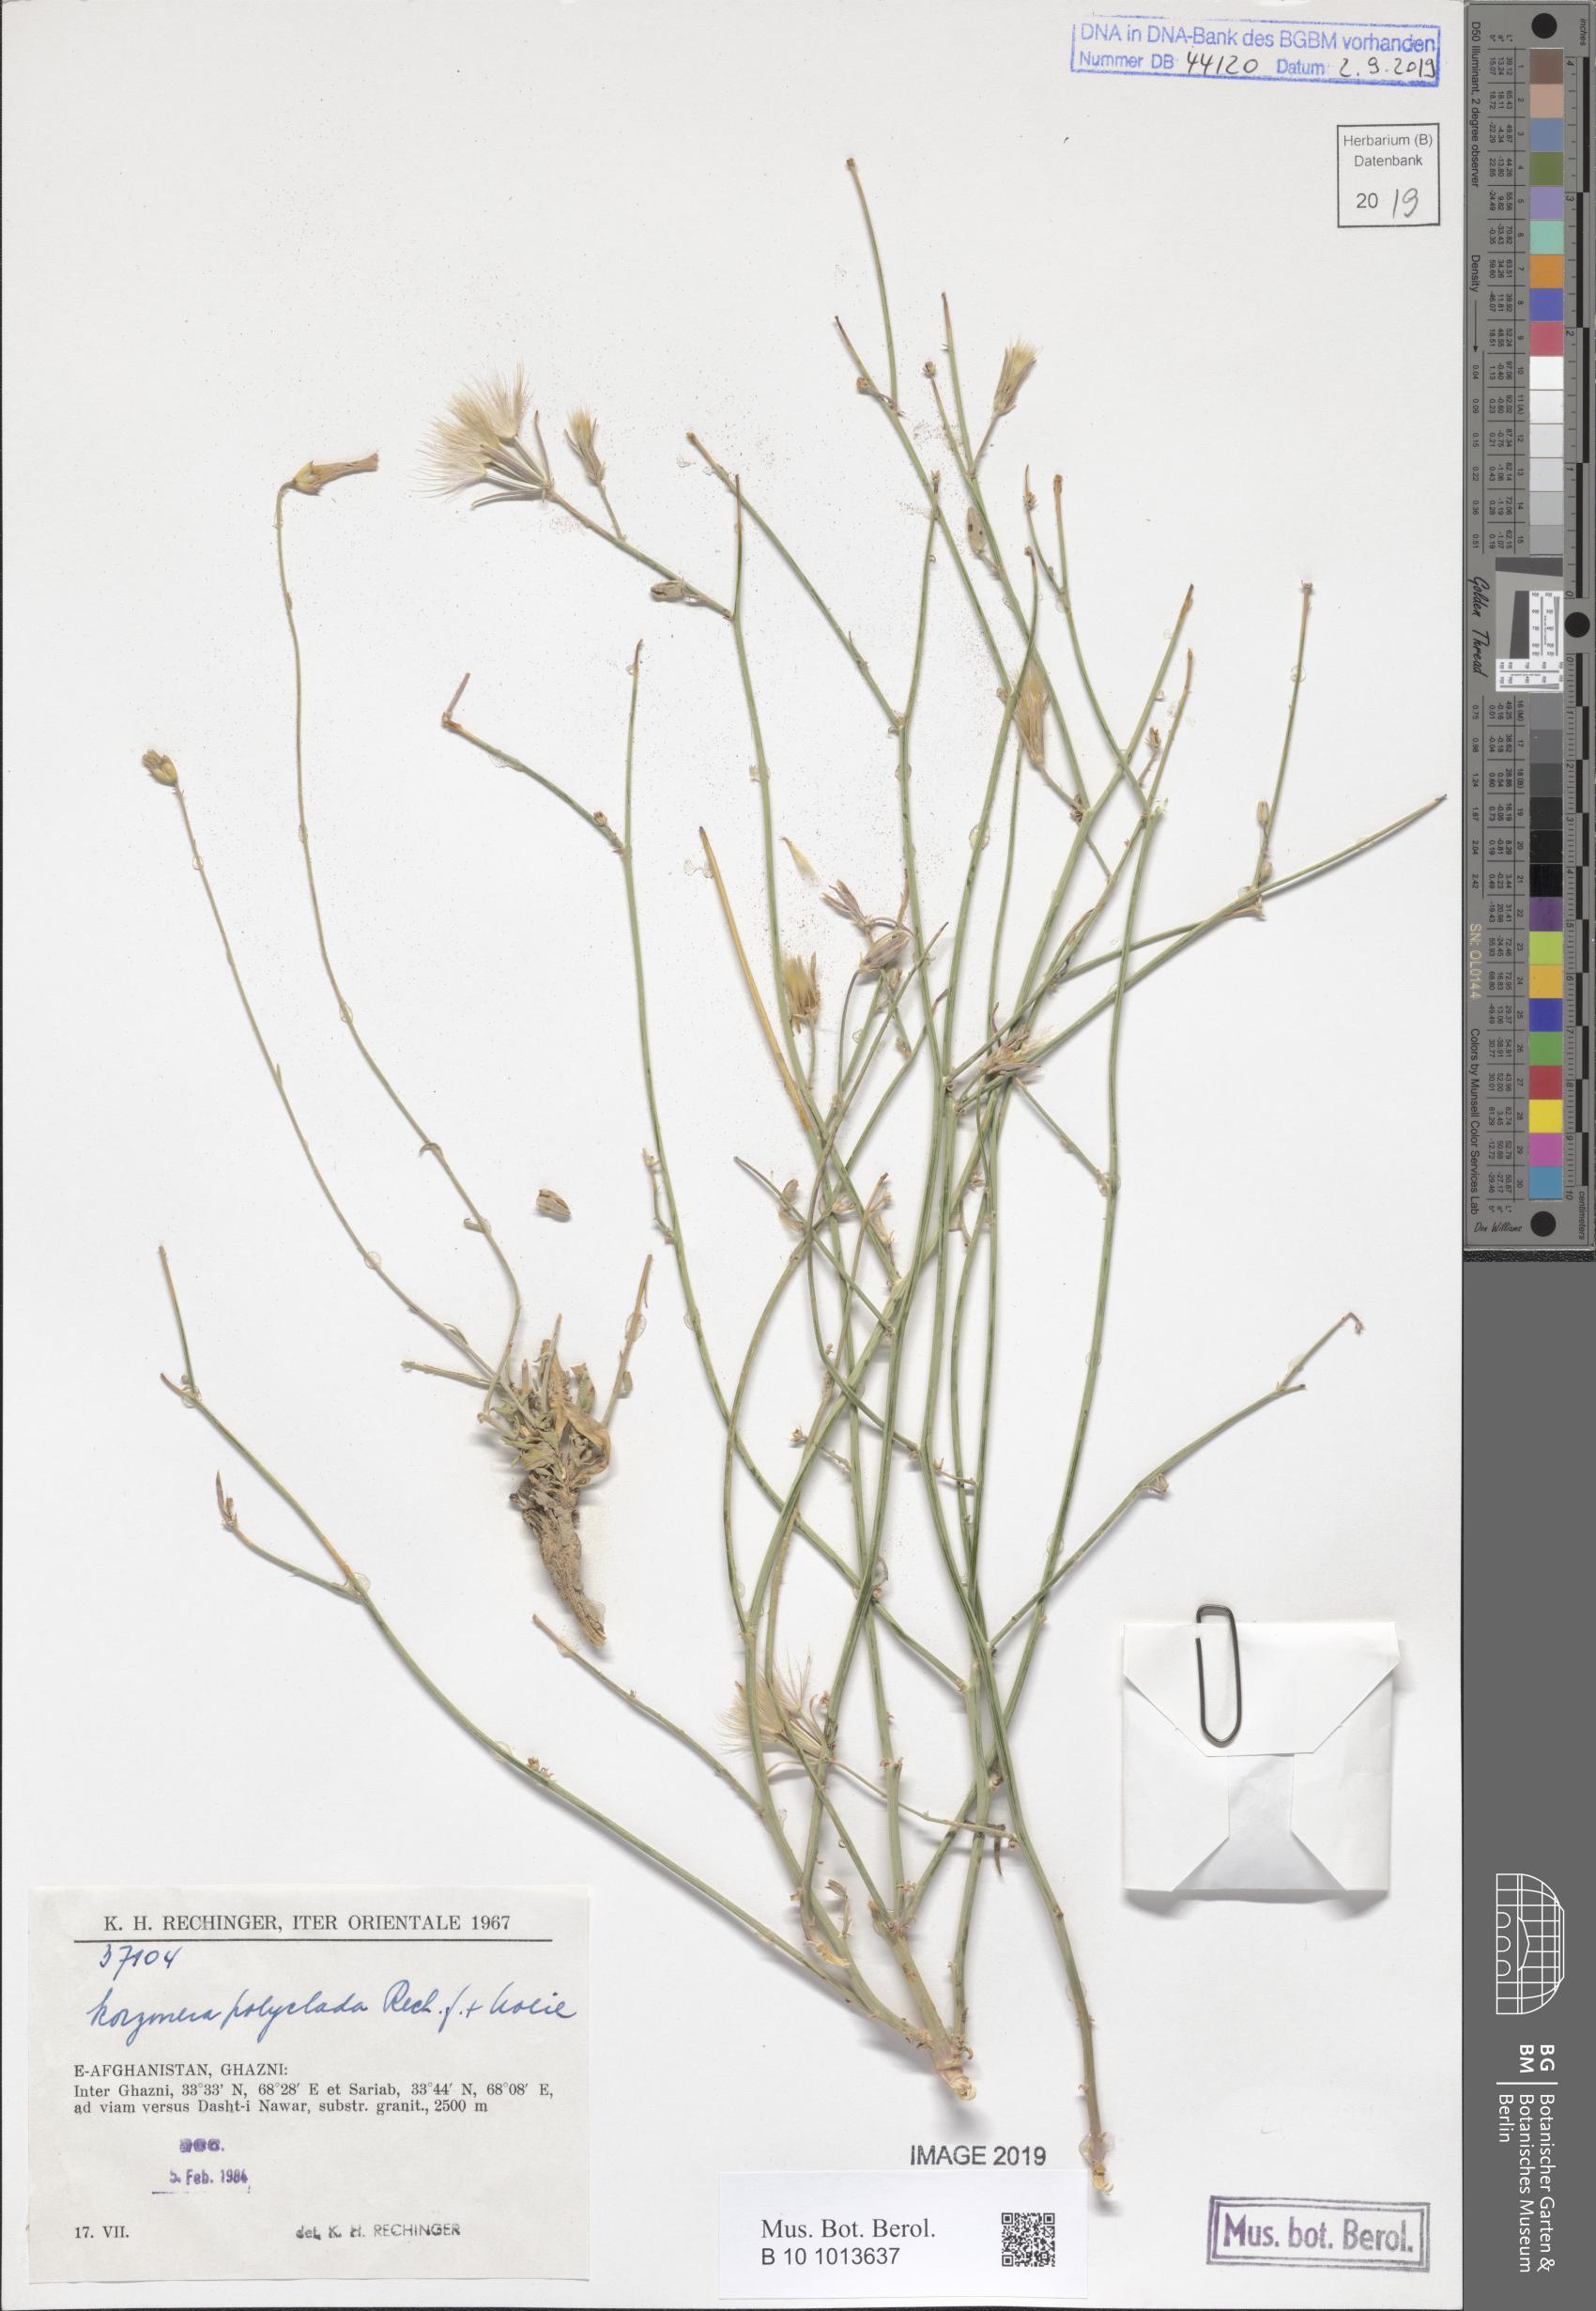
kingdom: Plantae
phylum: Tracheophyta
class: Magnoliopsida
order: Asterales
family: Asteraceae
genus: Ramaliella
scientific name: Ramaliella polyclada
